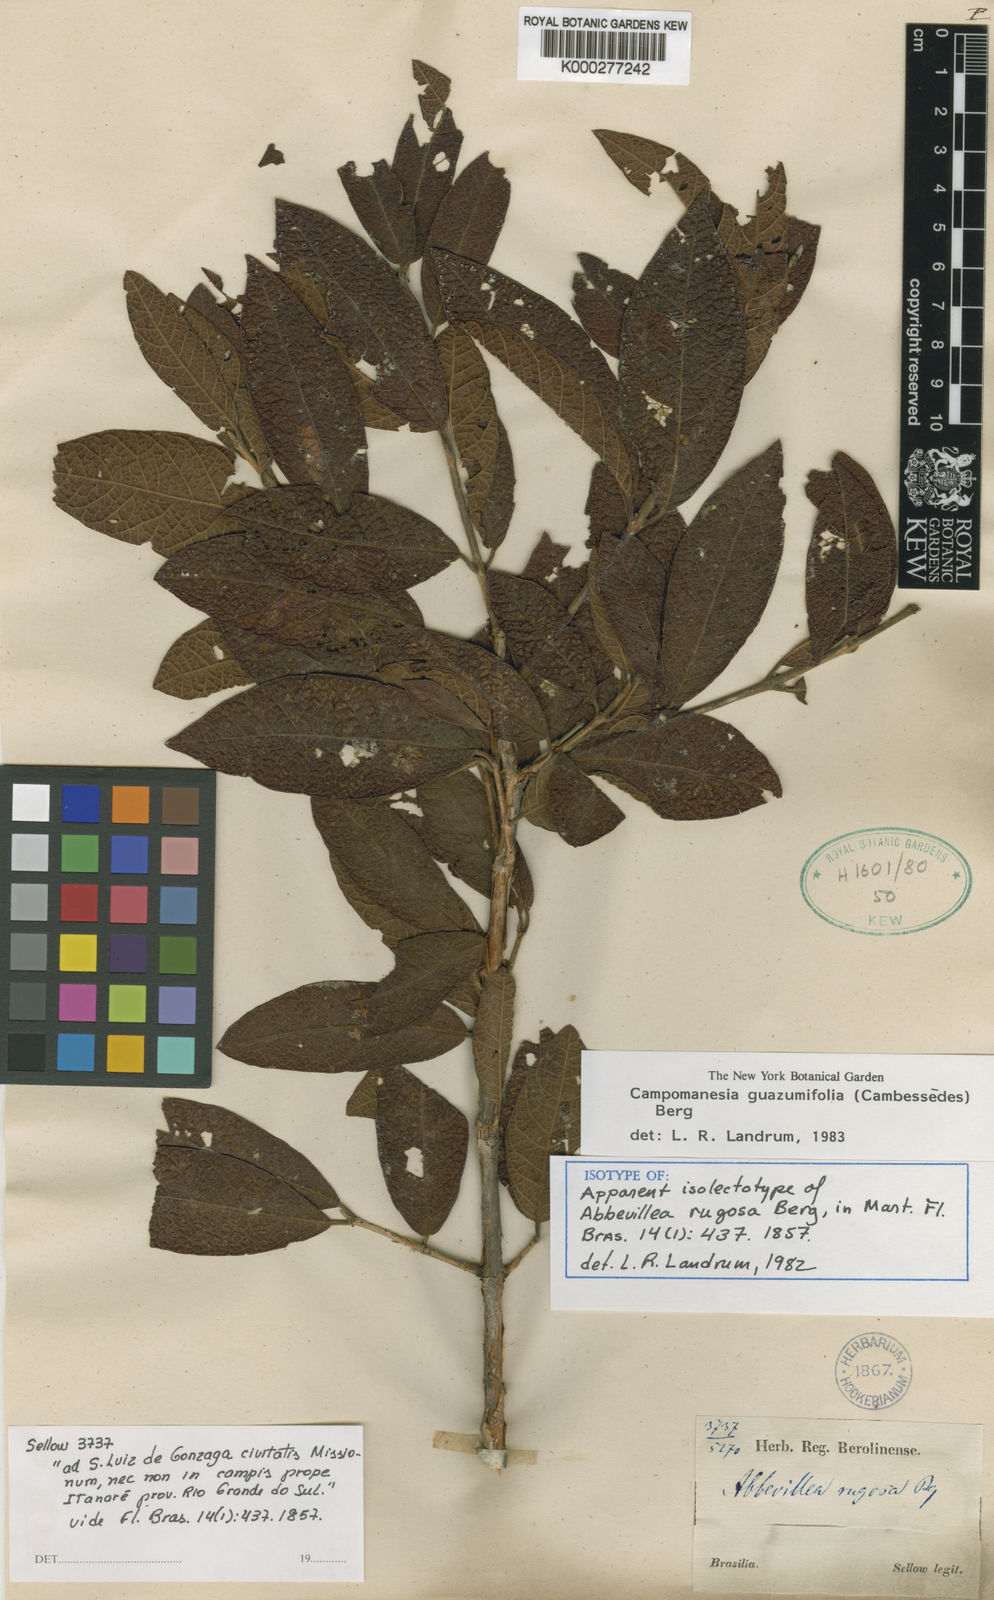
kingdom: Plantae
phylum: Tracheophyta
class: Magnoliopsida
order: Myrtales
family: Myrtaceae
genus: Campomanesia
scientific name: Campomanesia guazumifolia
